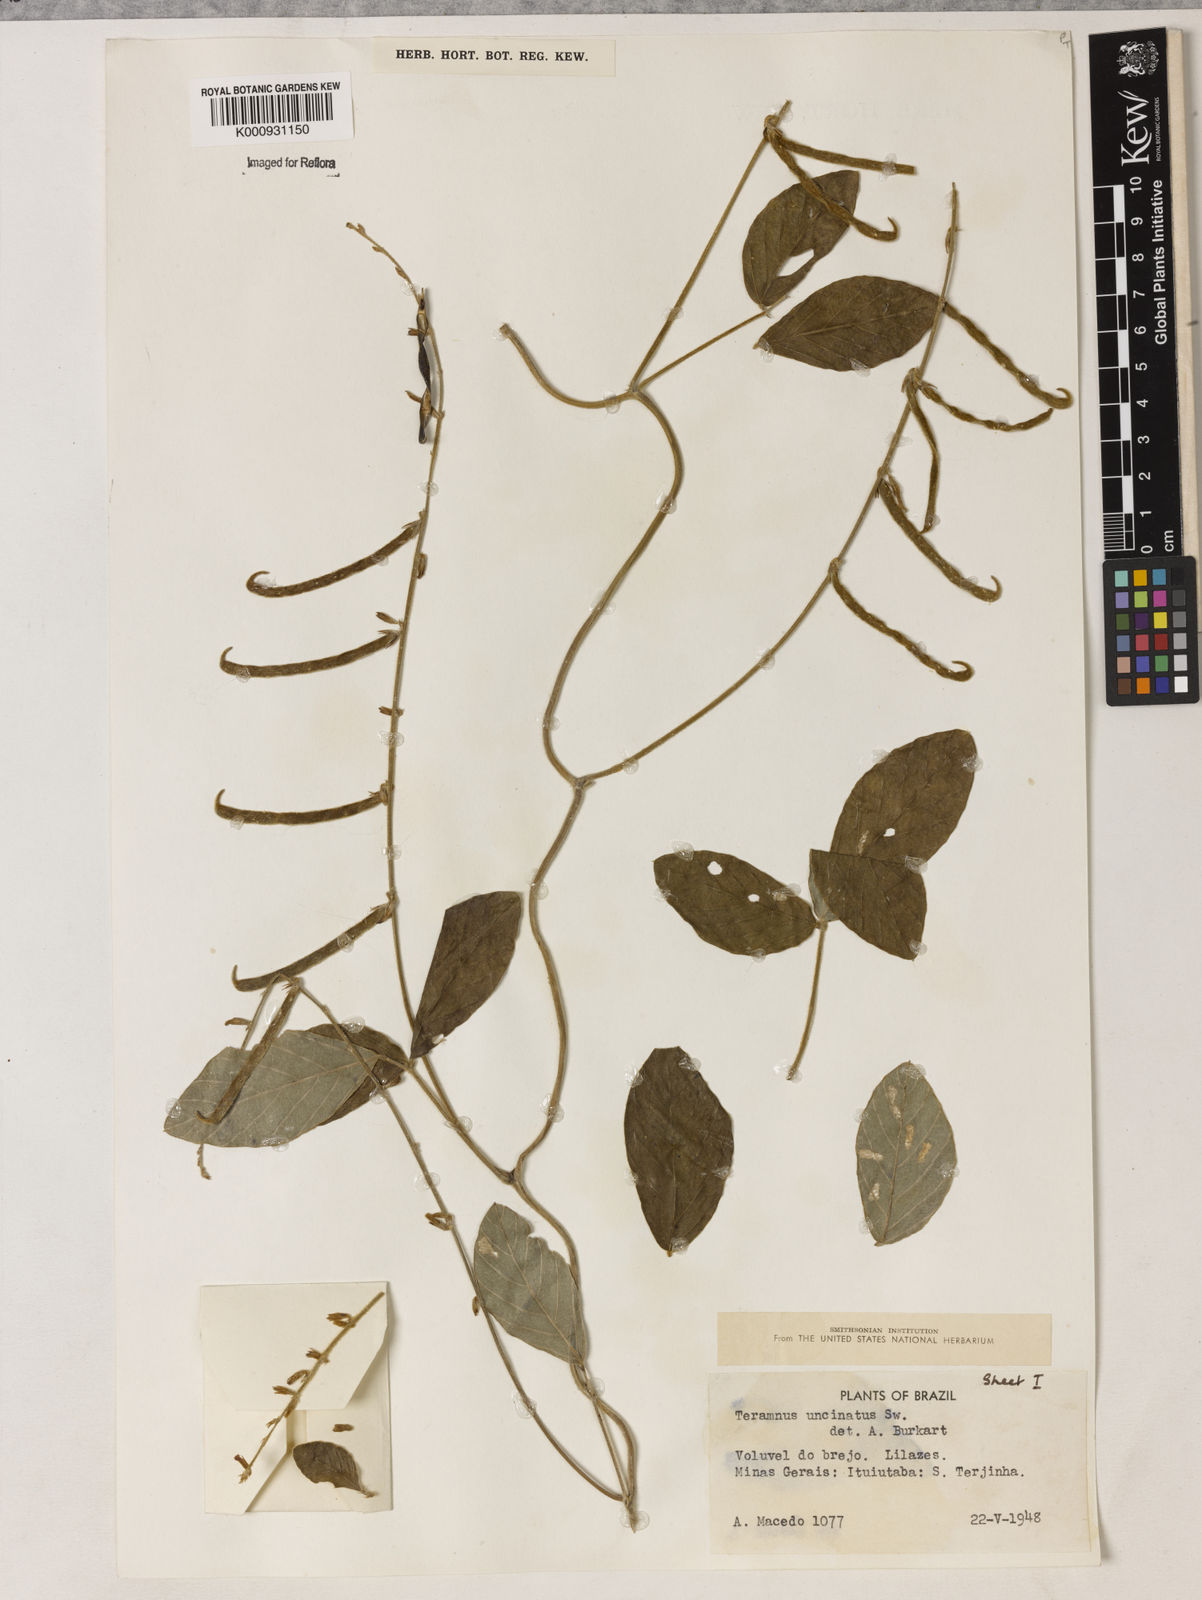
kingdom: Plantae
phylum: Tracheophyta
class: Magnoliopsida
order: Fabales
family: Fabaceae
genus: Teramnus
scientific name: Teramnus uncinatus
